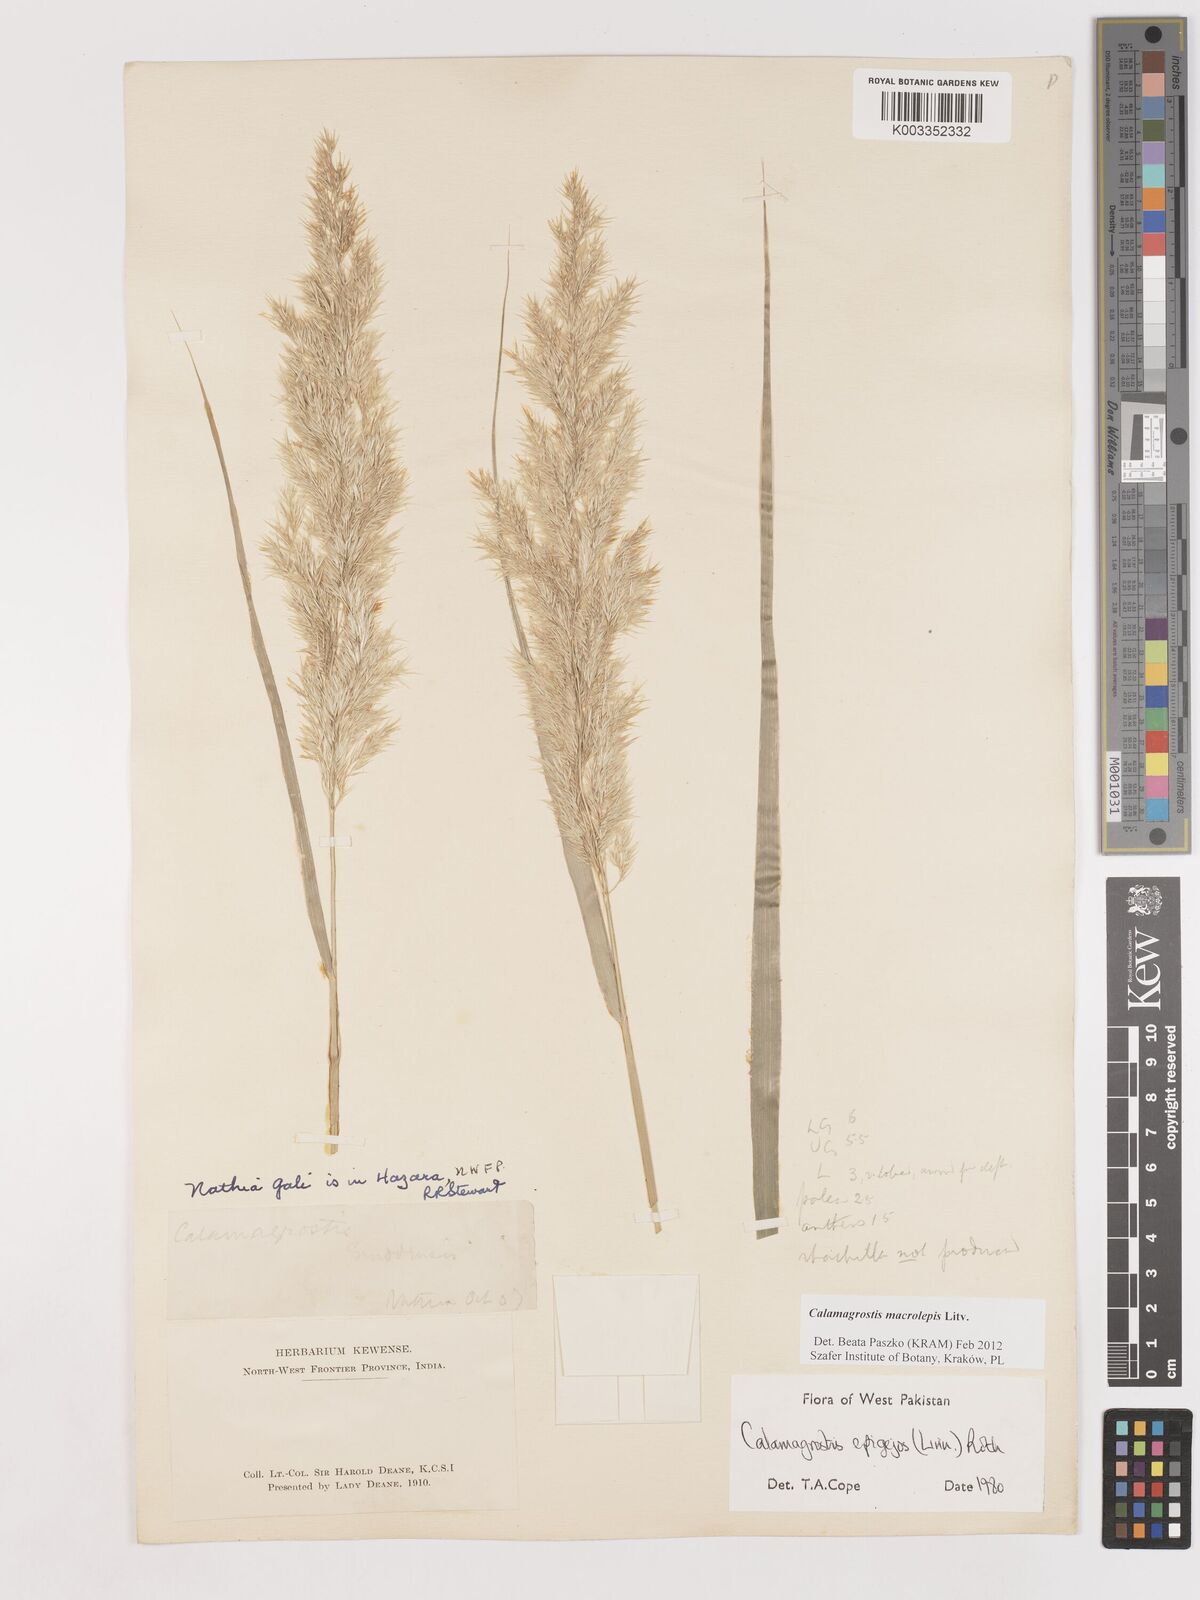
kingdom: Plantae
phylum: Tracheophyta
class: Liliopsida
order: Poales
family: Poaceae
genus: Calamagrostis
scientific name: Calamagrostis epigejos
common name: Wood small-reed
